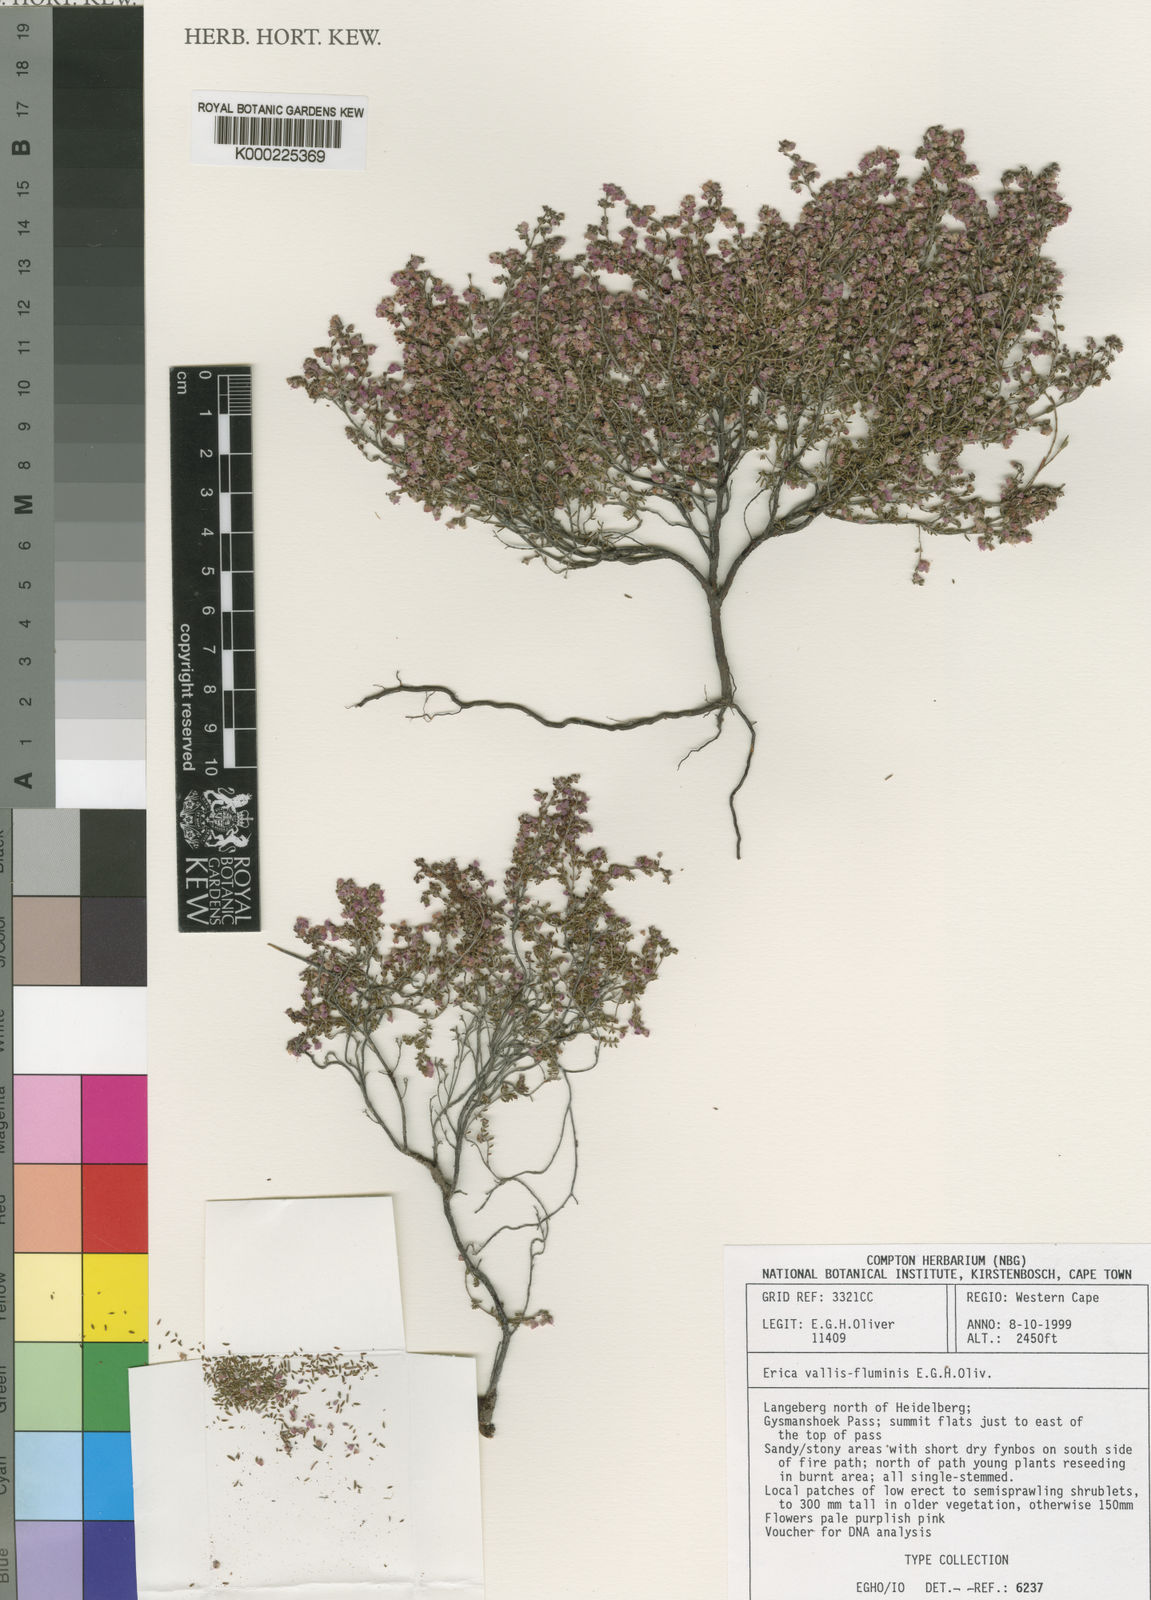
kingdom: Plantae
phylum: Tracheophyta
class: Magnoliopsida
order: Ericales
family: Ericaceae
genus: Erica
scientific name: Erica vallis-fluminis
